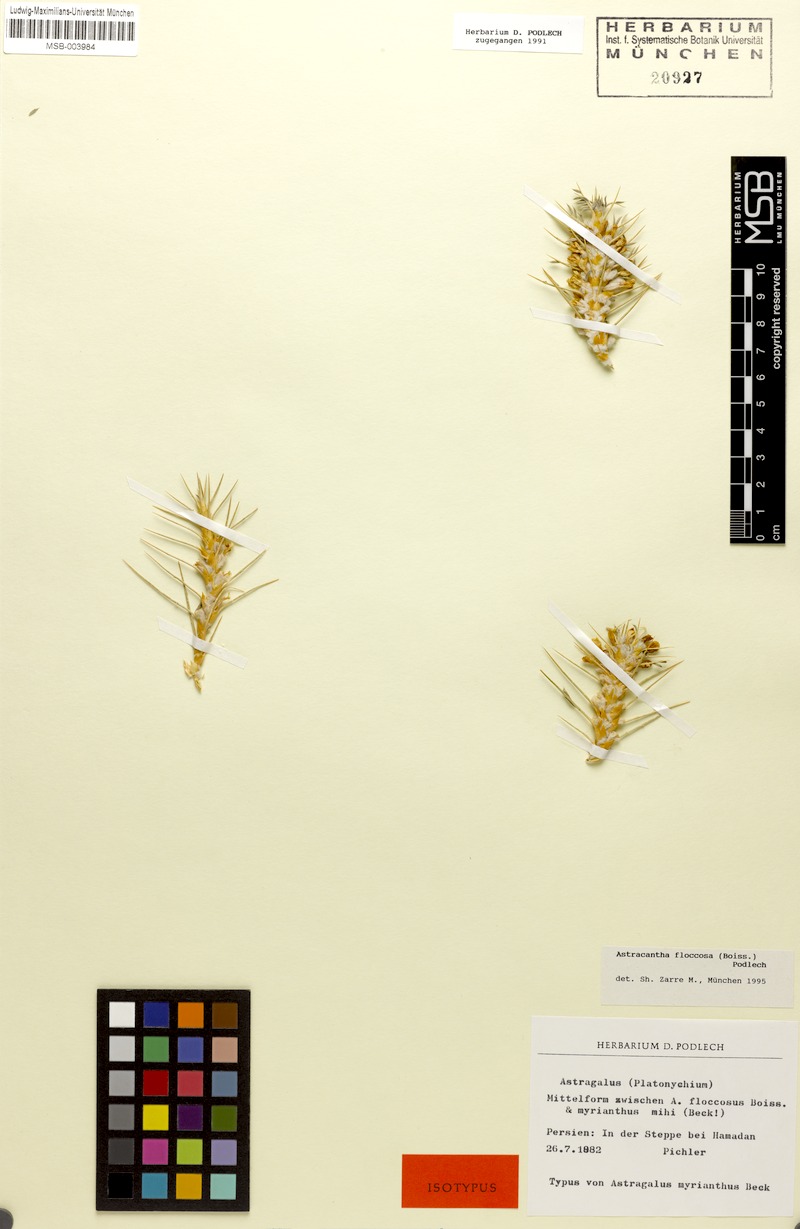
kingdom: Plantae
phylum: Tracheophyta
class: Magnoliopsida
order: Fabales
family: Fabaceae
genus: Astragalus
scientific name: Astragalus floccosus
